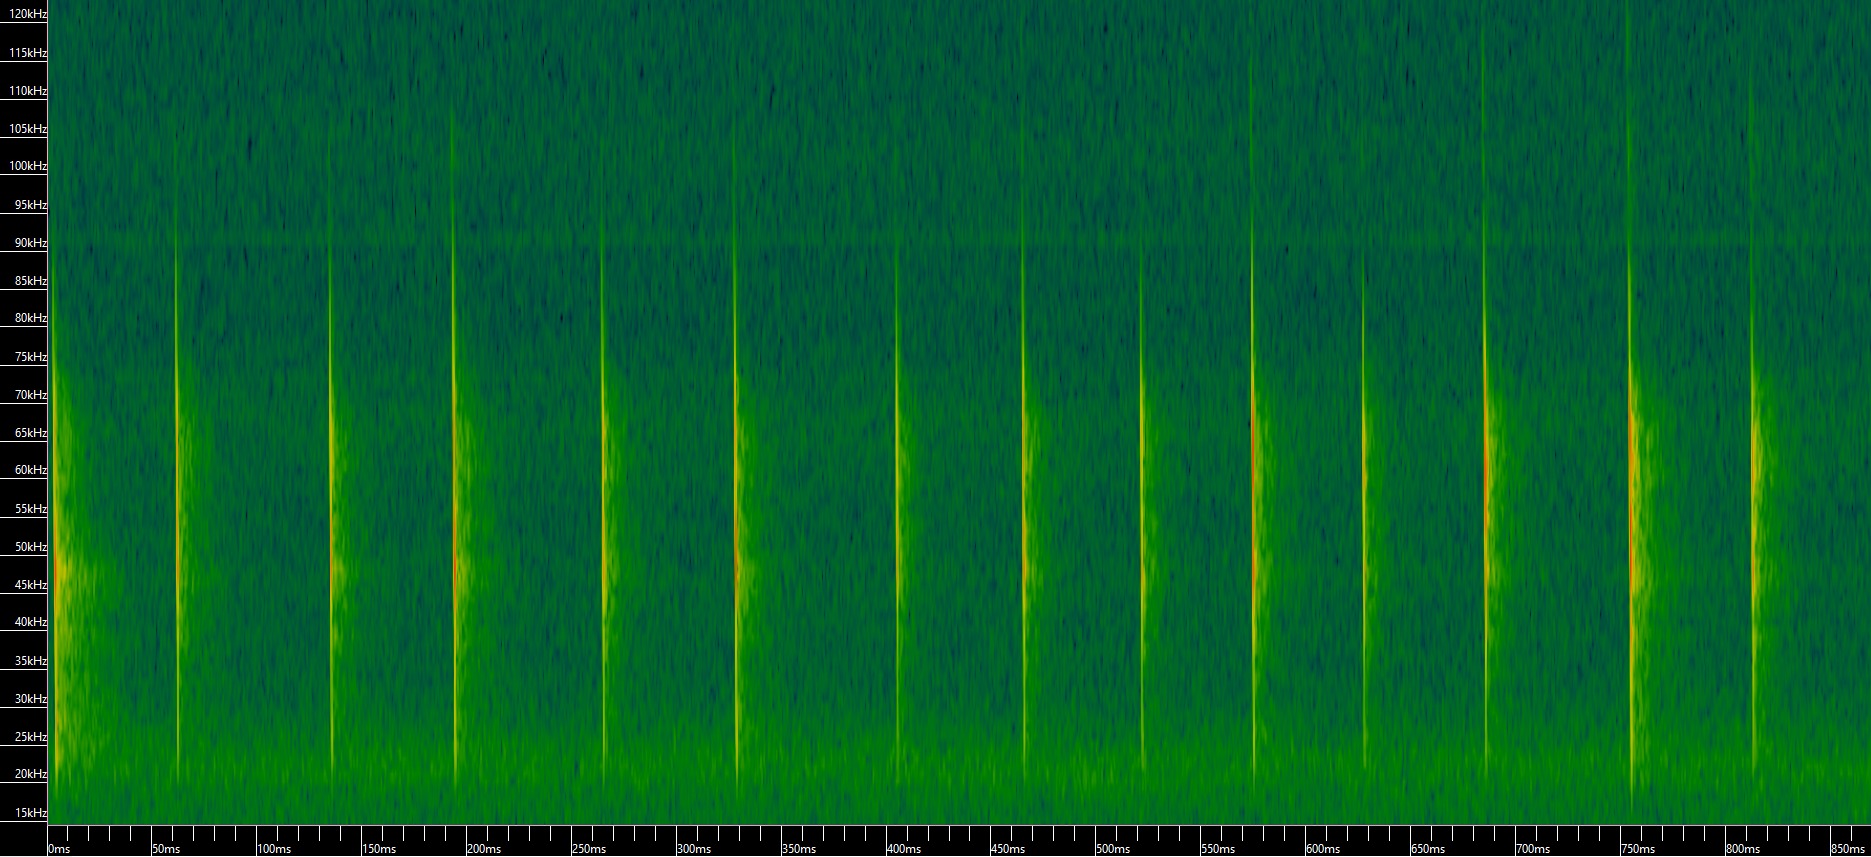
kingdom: Animalia
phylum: Chordata
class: Mammalia
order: Chiroptera
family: Vespertilionidae
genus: Myotis
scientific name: Myotis nattereri
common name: Frynseflagermus
